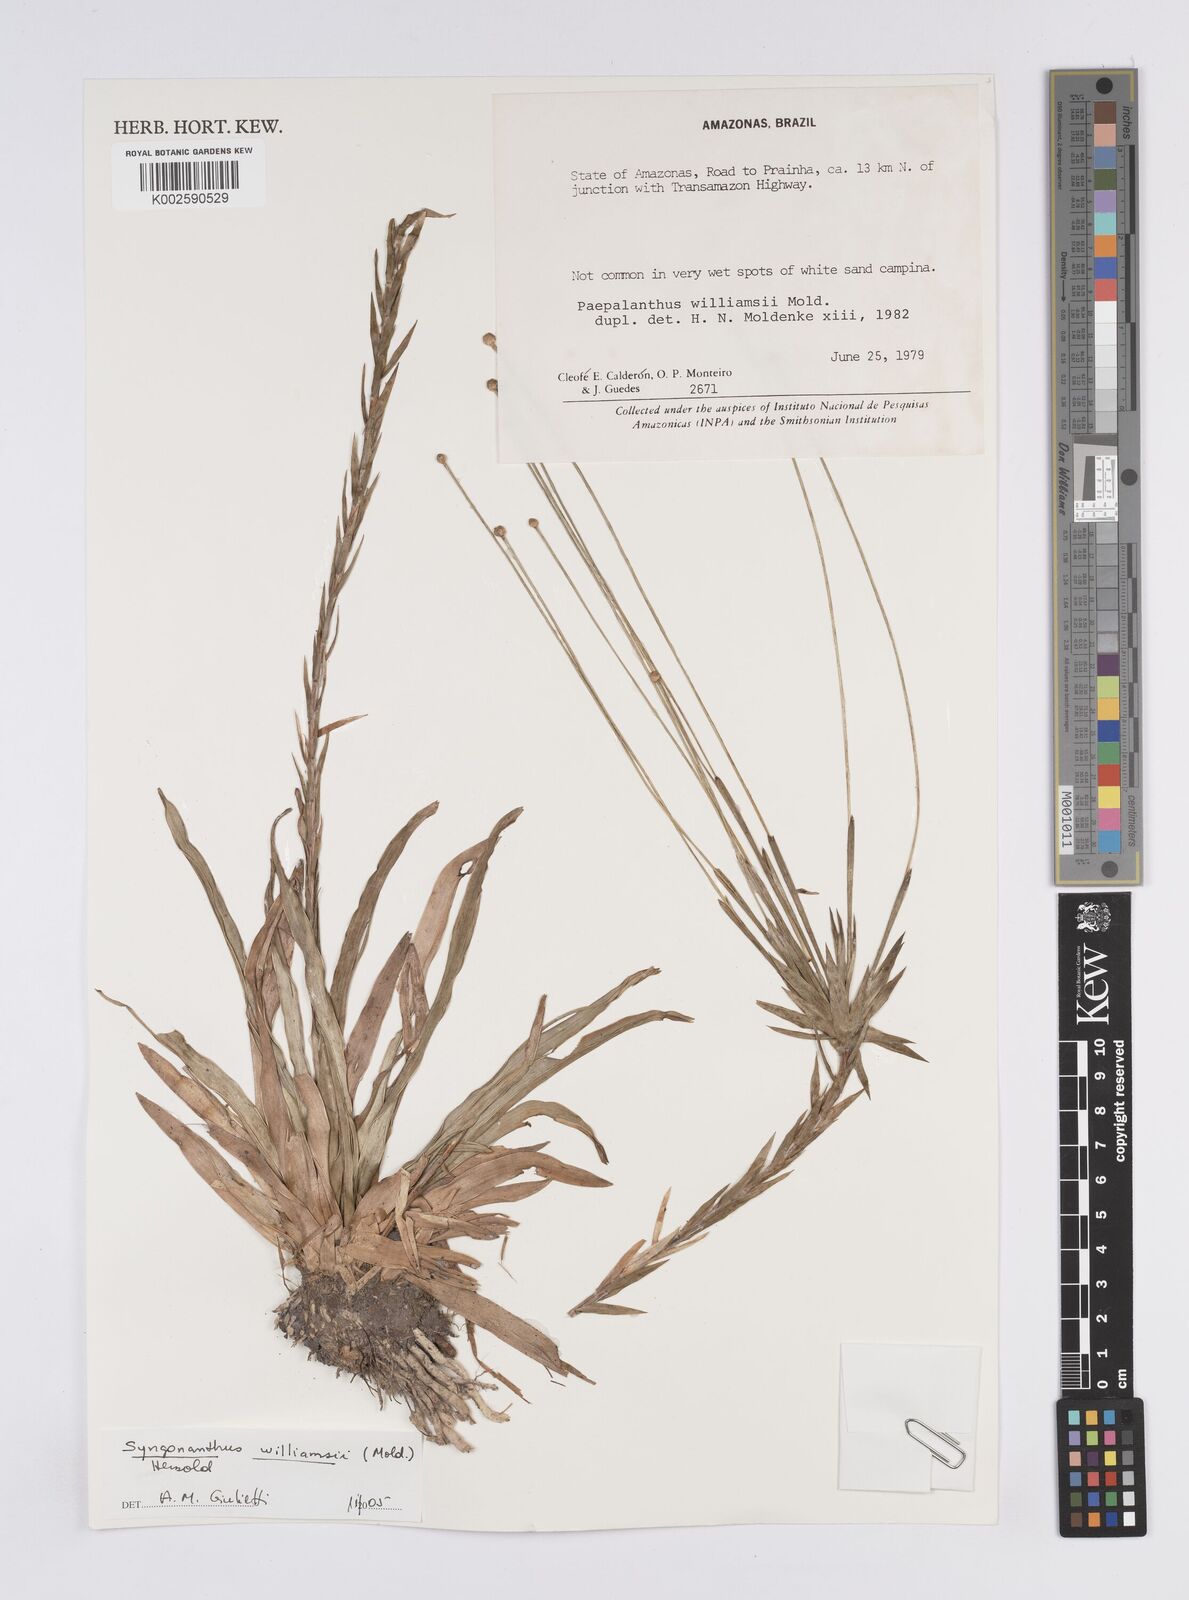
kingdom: Plantae
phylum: Tracheophyta
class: Liliopsida
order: Poales
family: Eriocaulaceae
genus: Syngonanthus
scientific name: Syngonanthus williamsii
